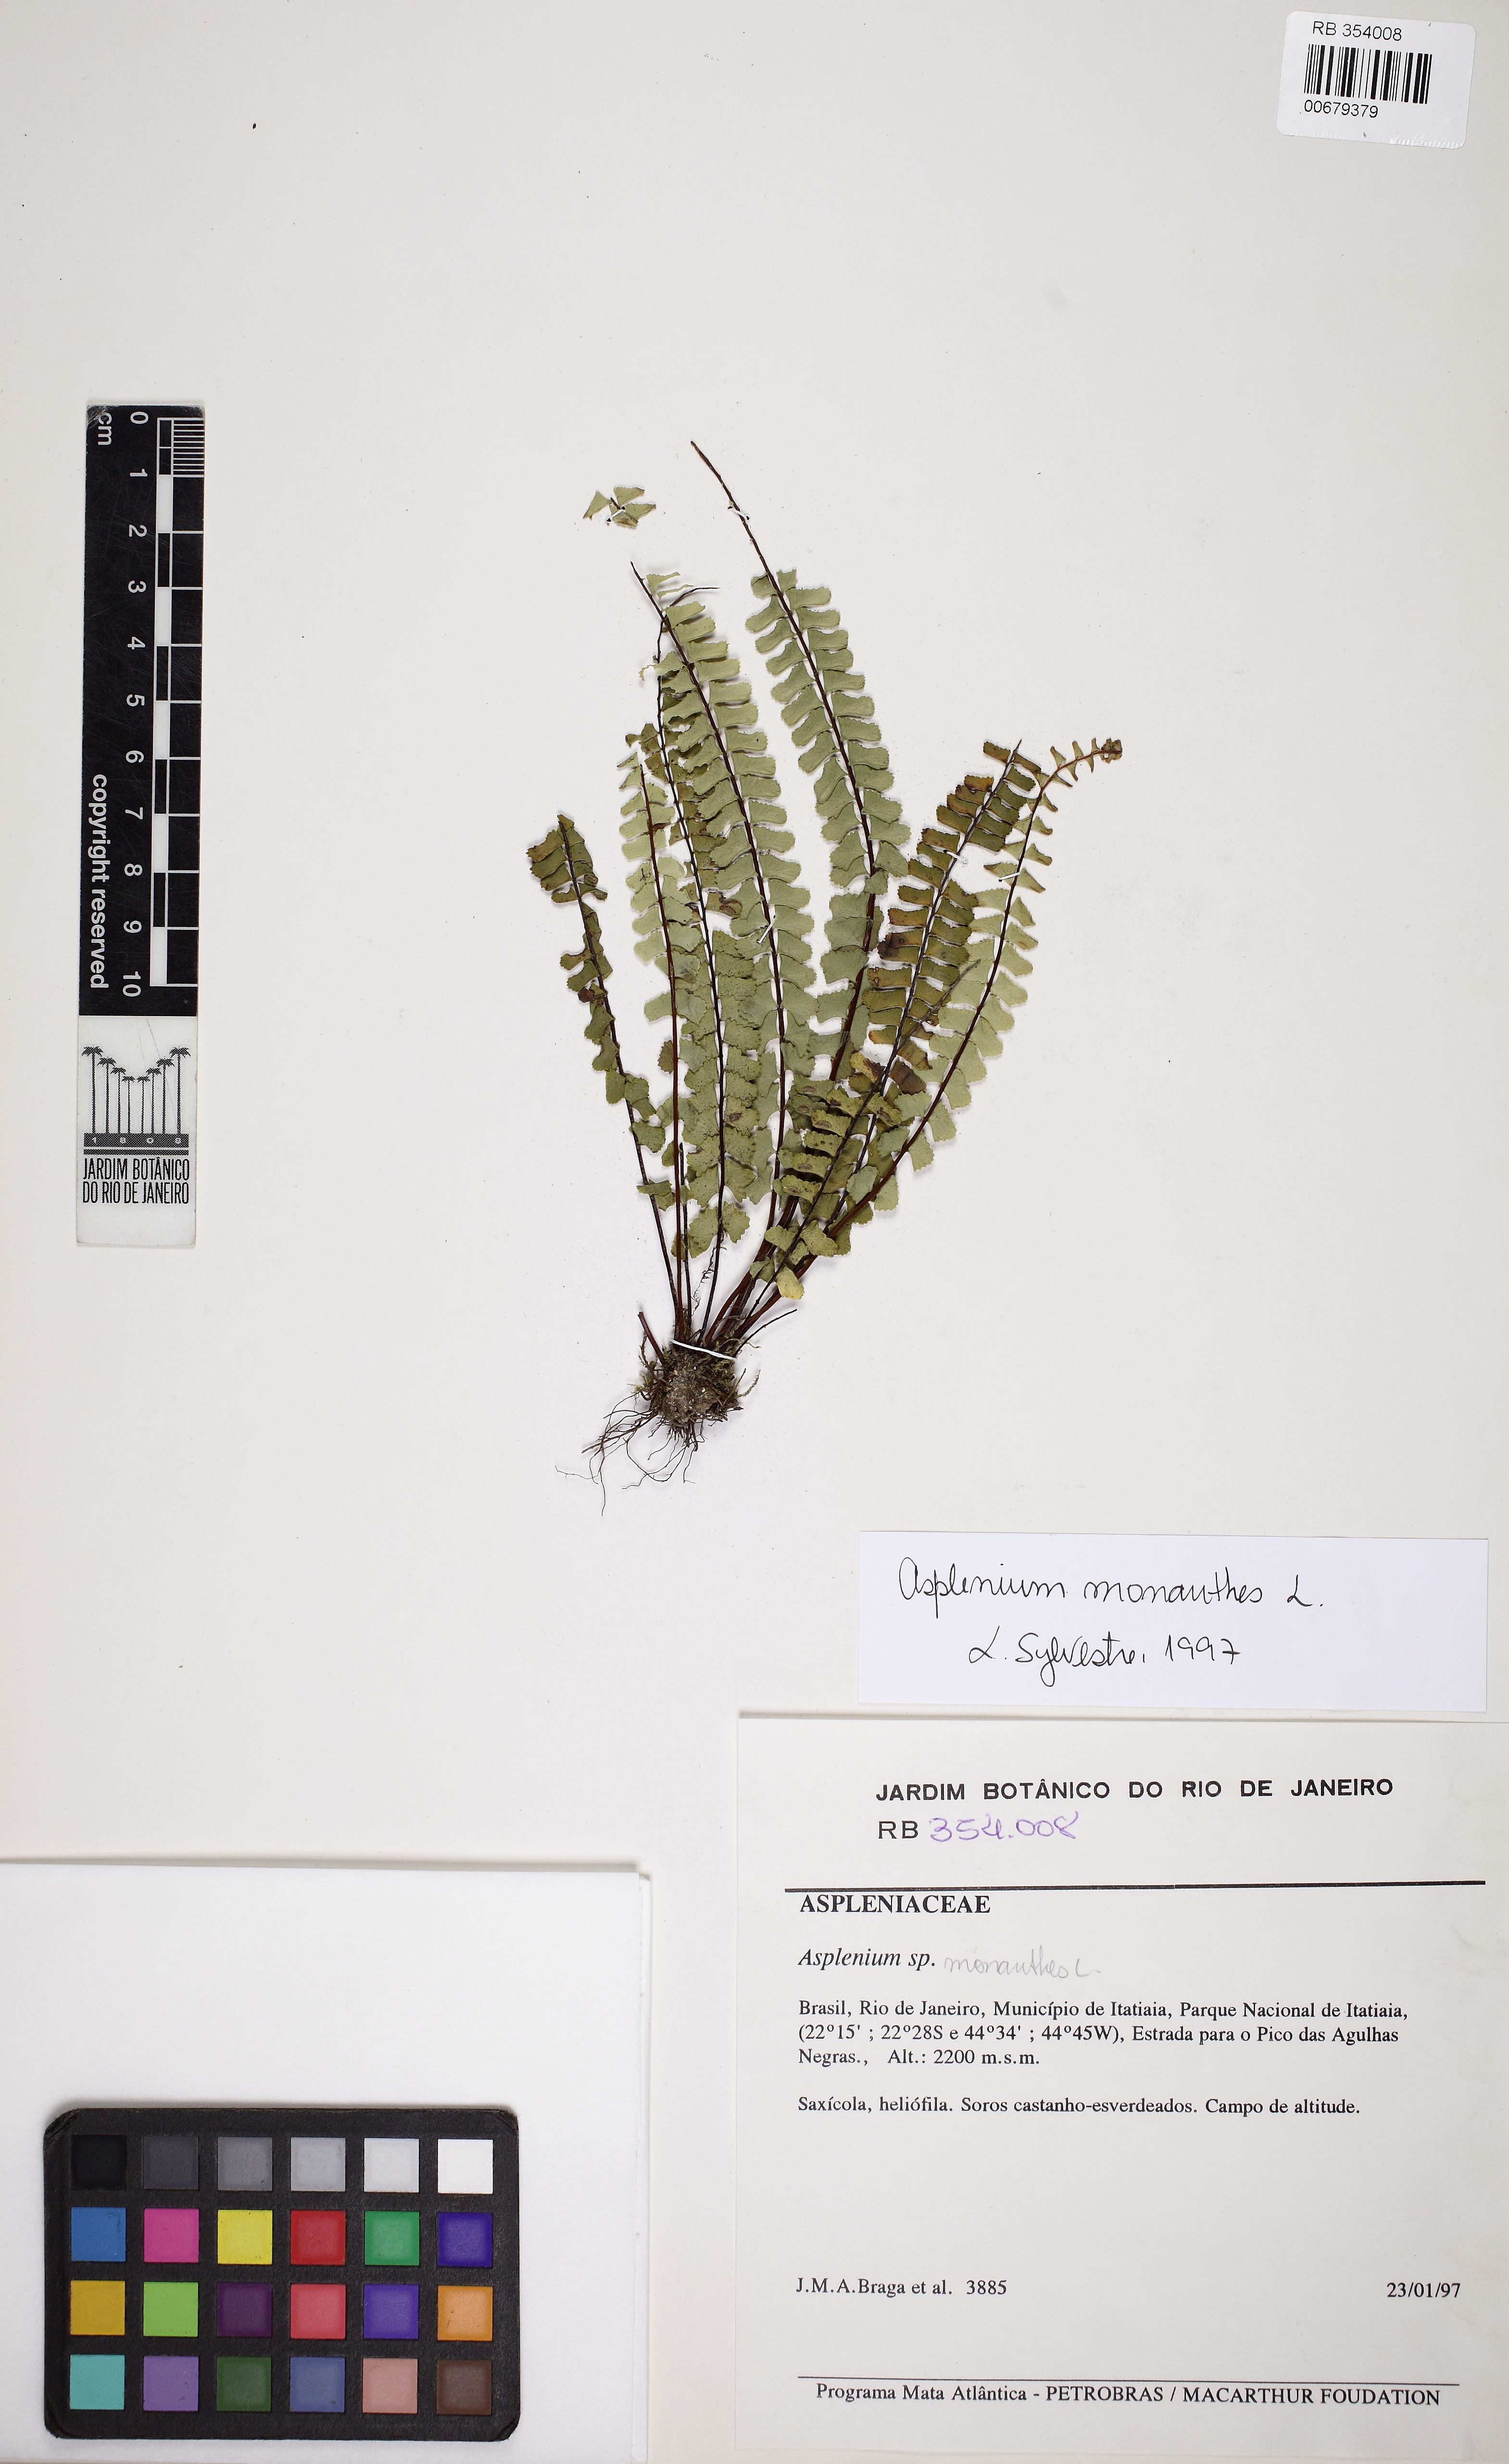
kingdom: Plantae
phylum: Tracheophyta
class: Polypodiopsida
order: Polypodiales
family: Aspleniaceae
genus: Asplenium
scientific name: Asplenium monanthes
